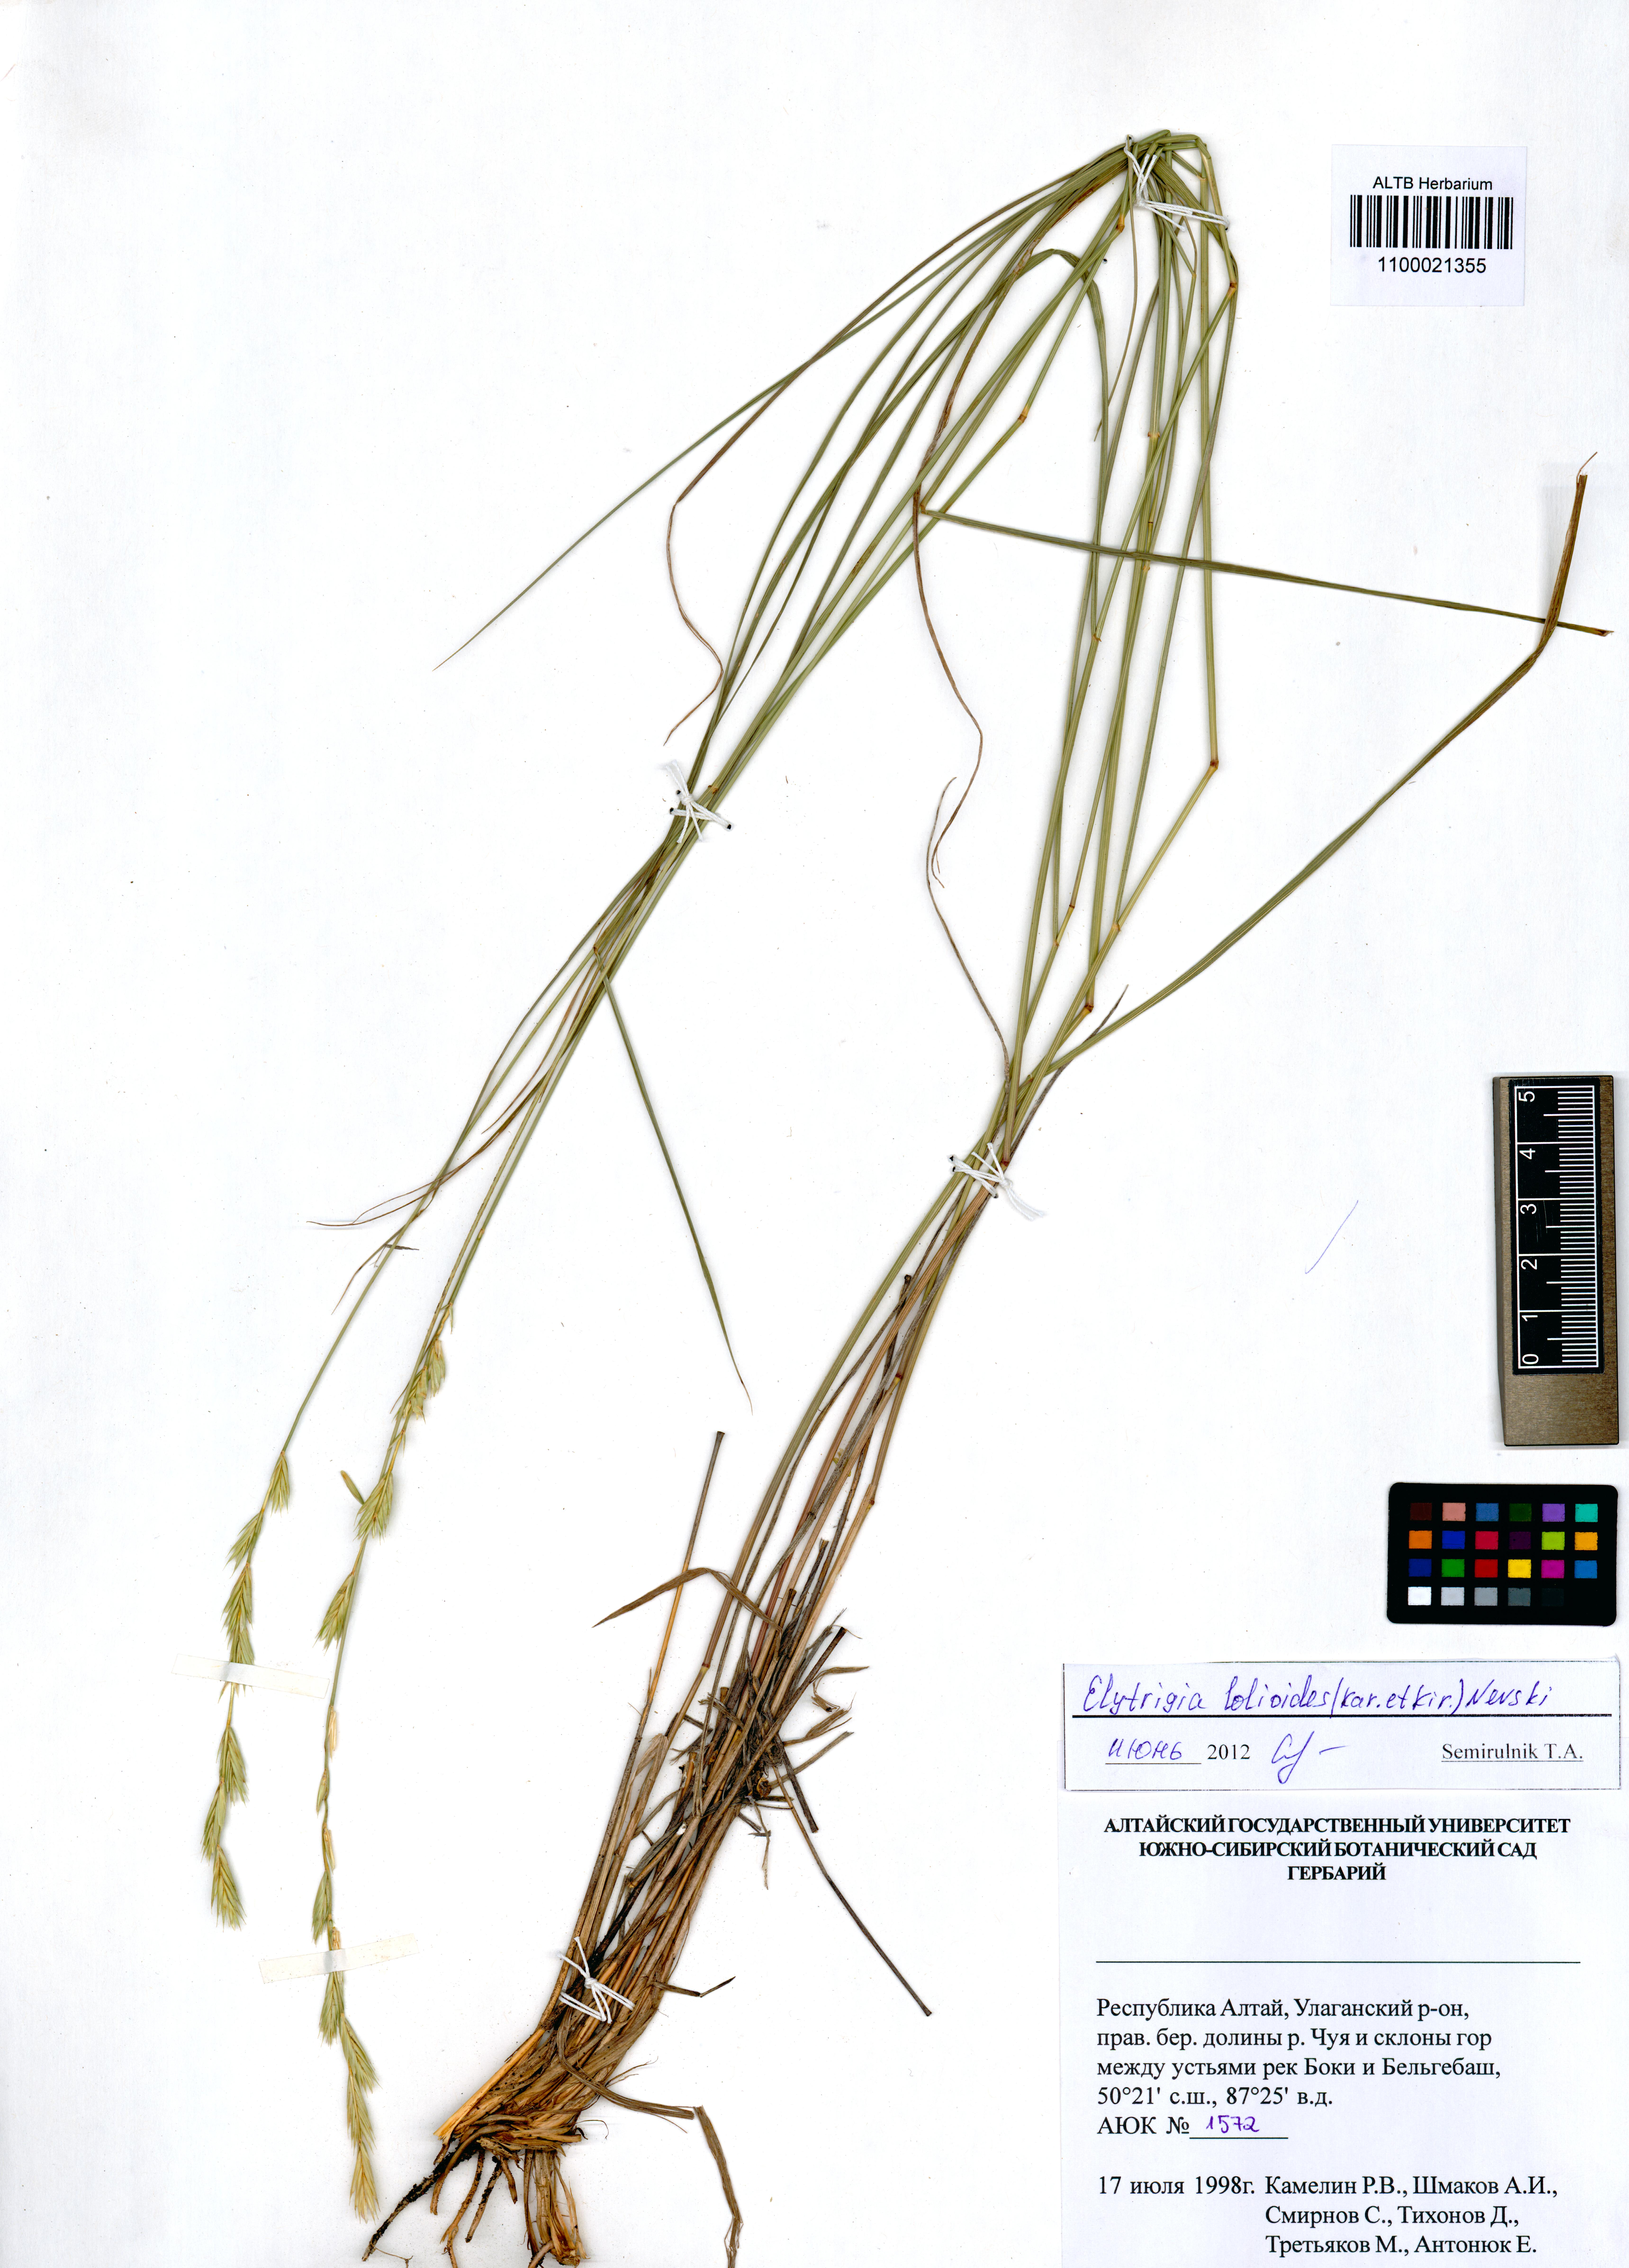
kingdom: Plantae
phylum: Tracheophyta
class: Liliopsida
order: Poales
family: Poaceae
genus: Elymus
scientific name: Elymus lolioides
